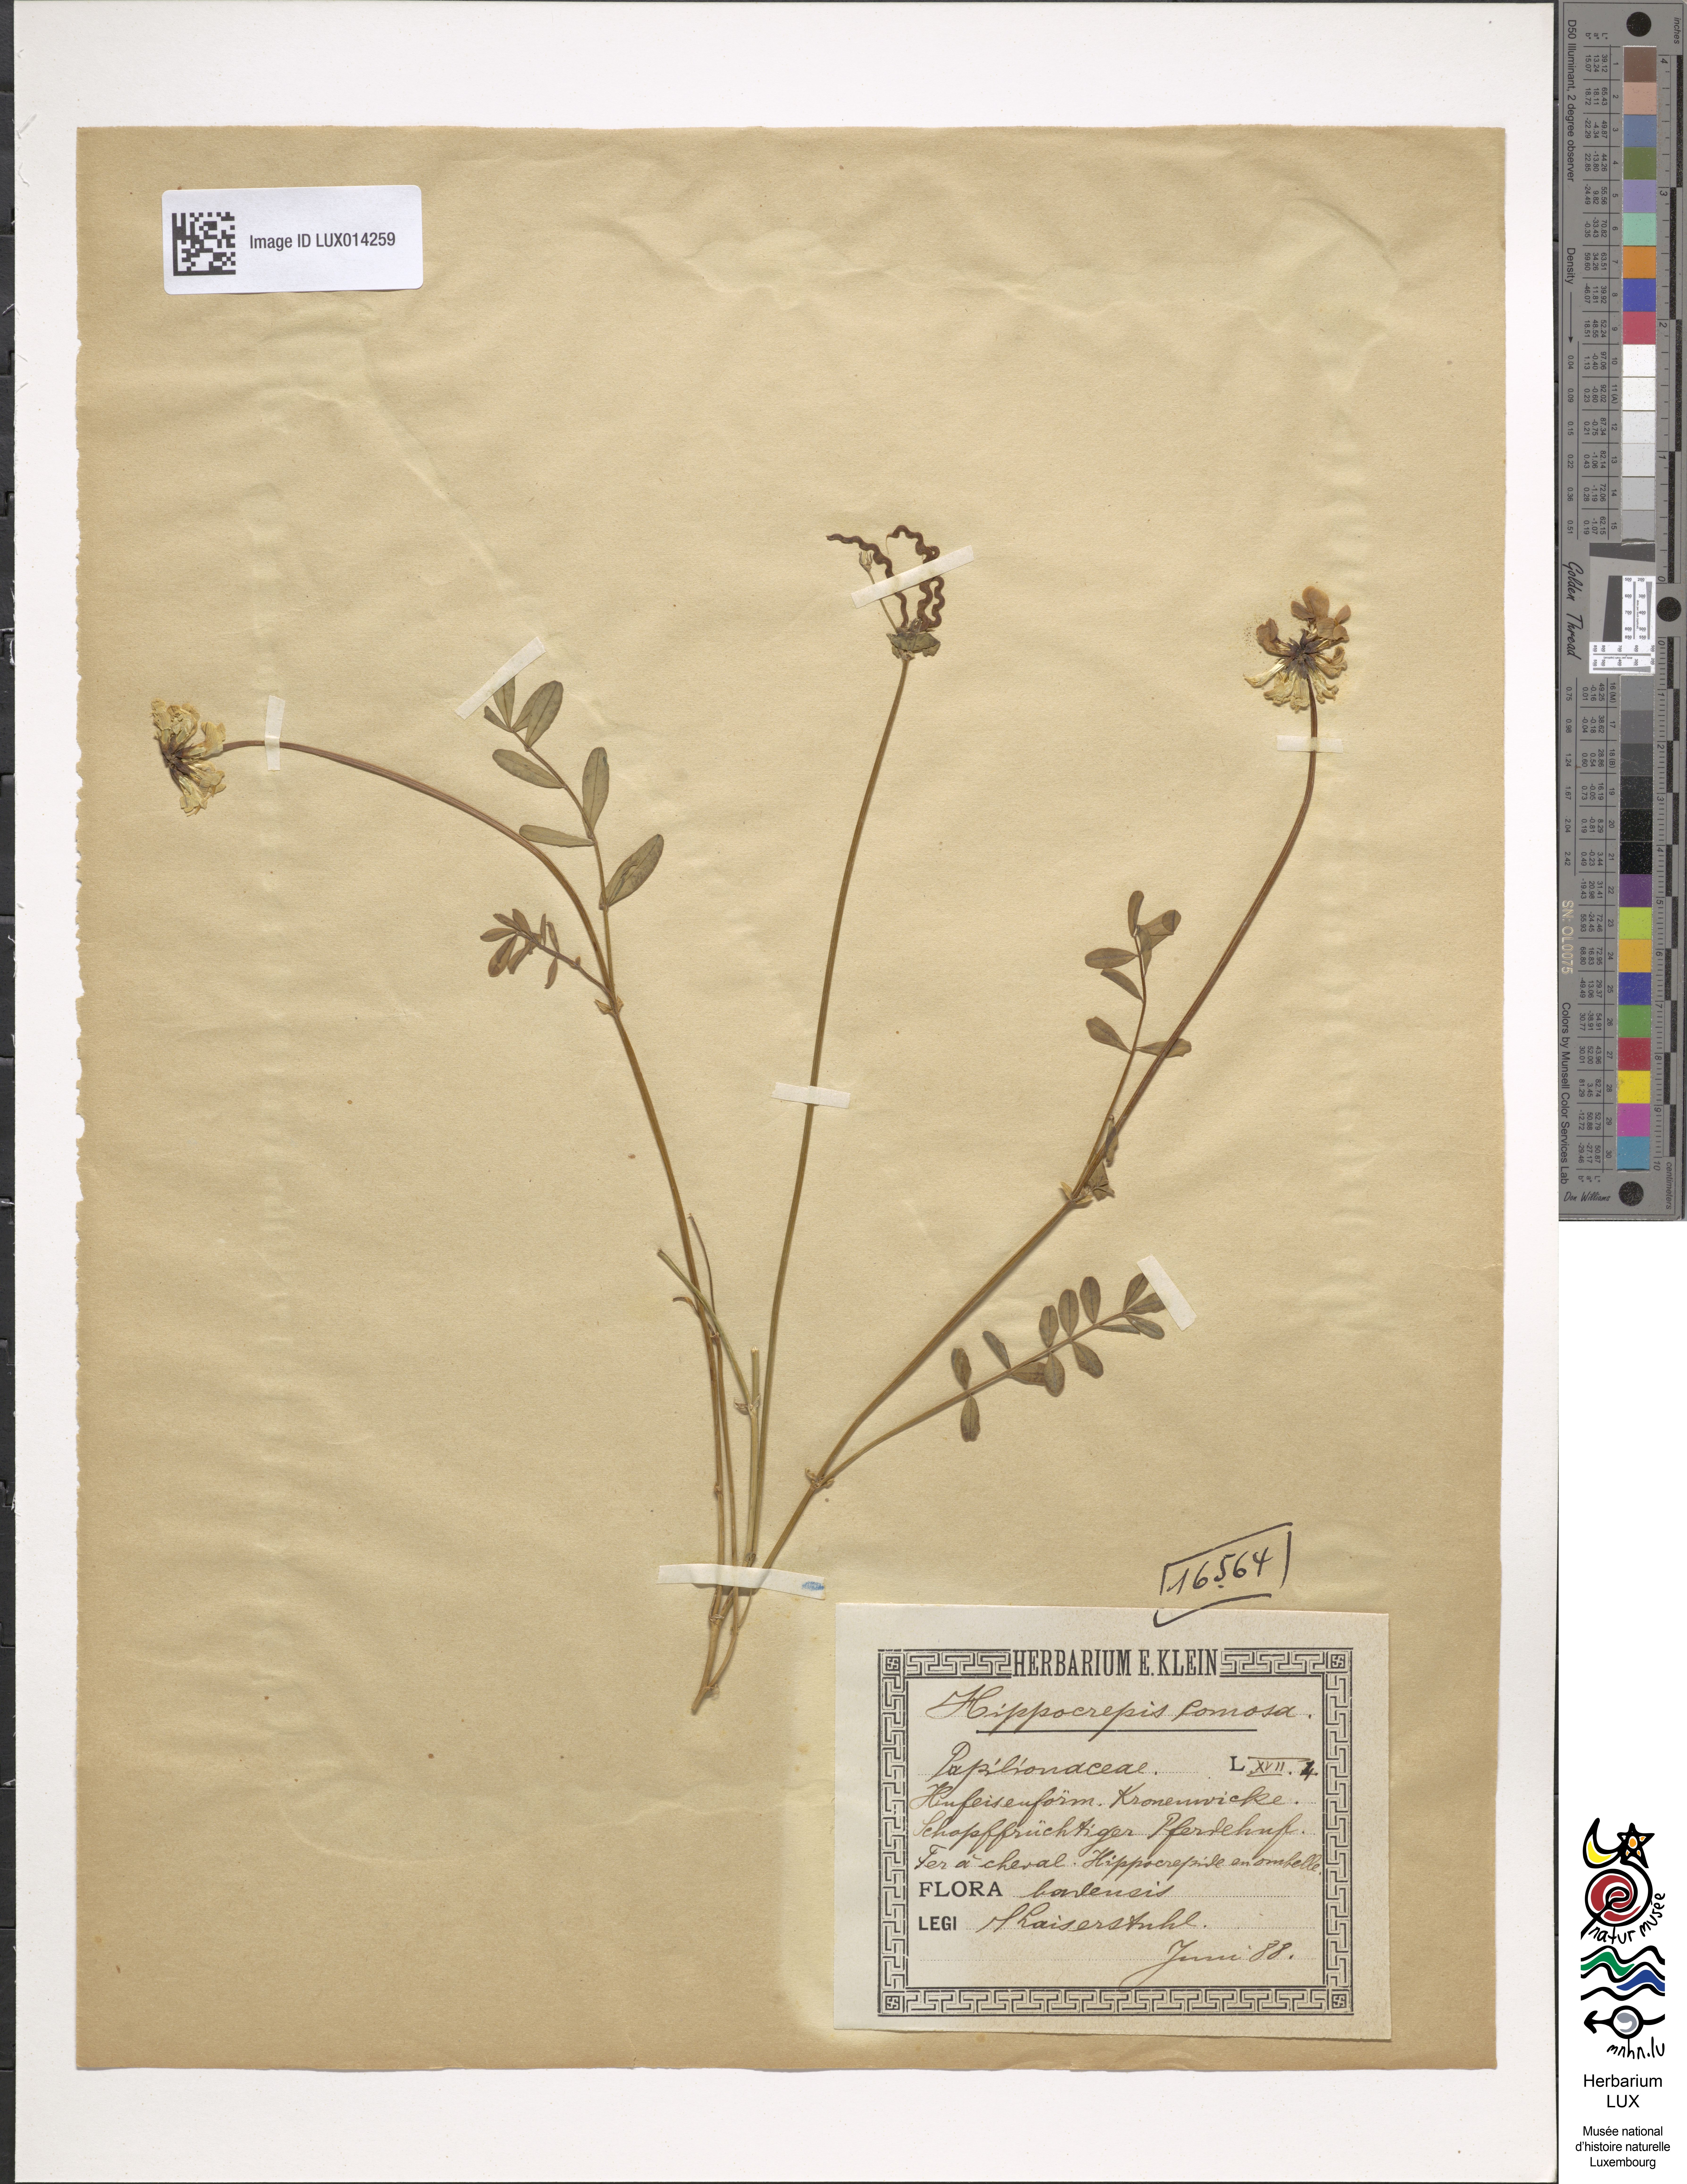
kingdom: Plantae
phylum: Tracheophyta
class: Magnoliopsida
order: Fabales
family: Fabaceae
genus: Hippocrepis
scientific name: Hippocrepis comosa
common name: Horseshoe vetch
